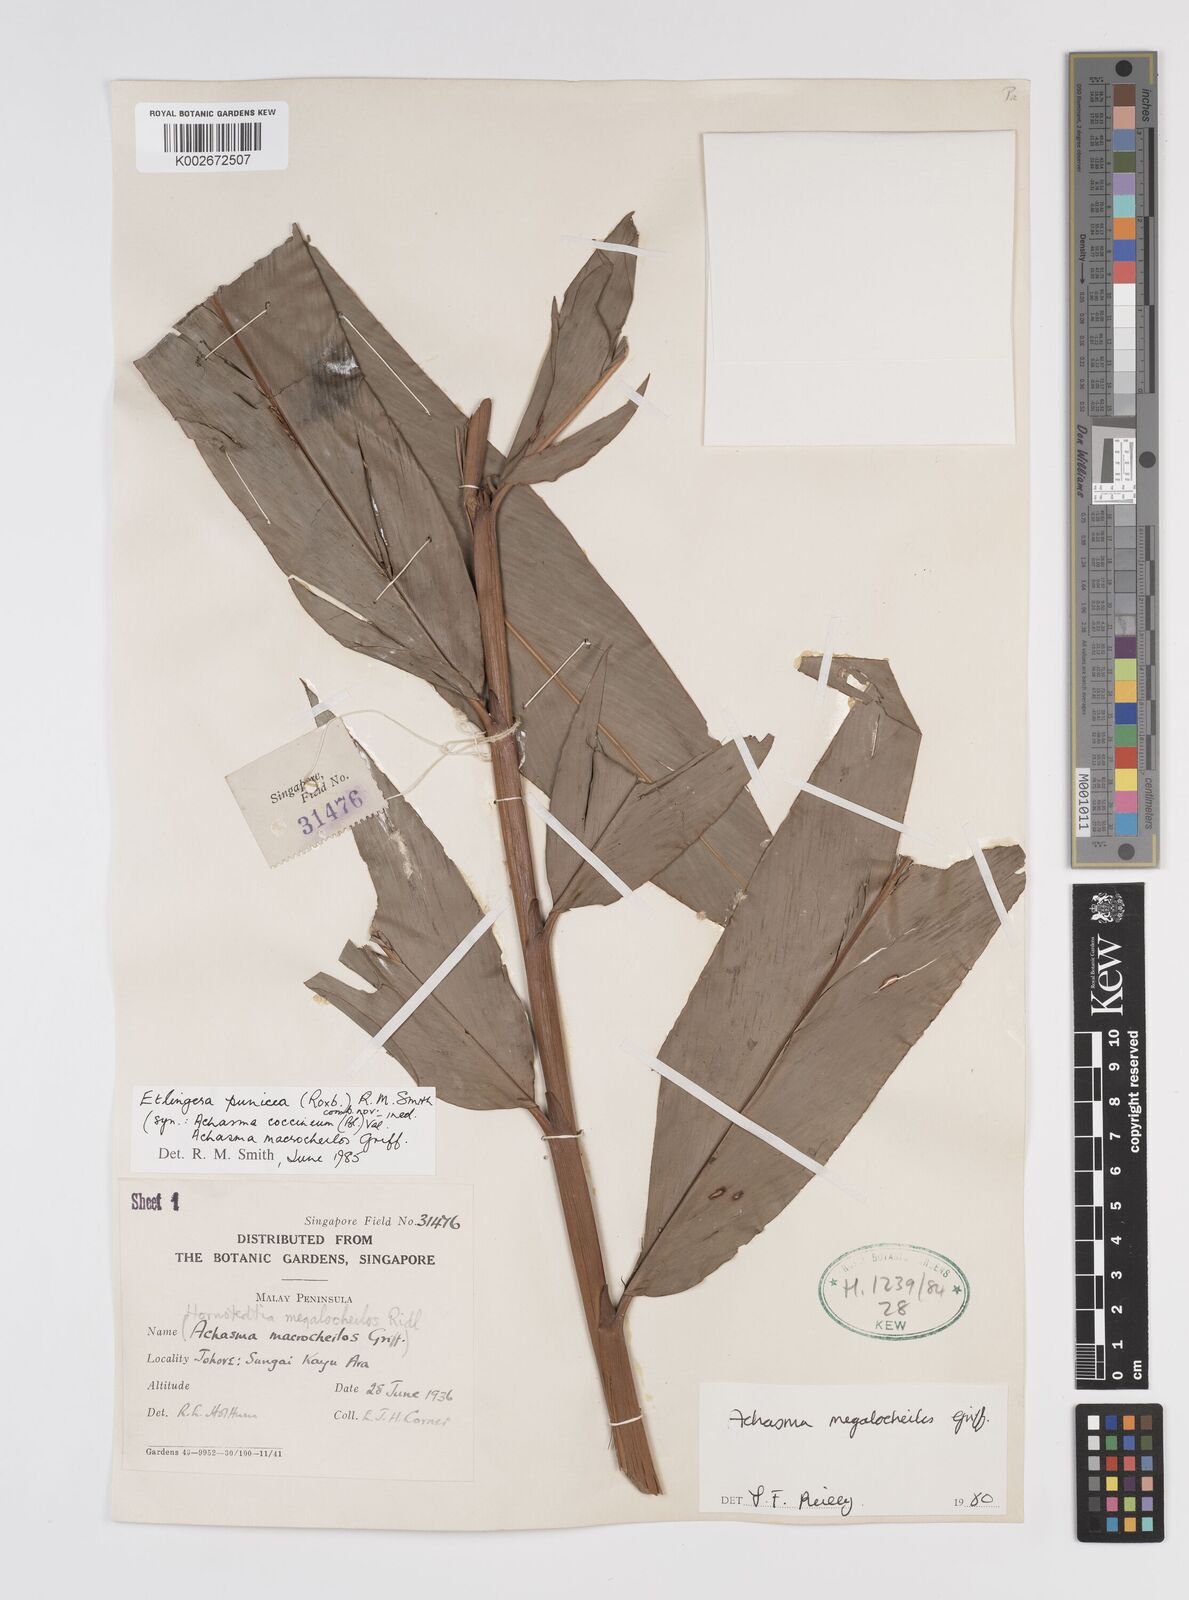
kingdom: Plantae
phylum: Tracheophyta
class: Liliopsida
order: Zingiberales
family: Zingiberaceae
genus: Etlingera
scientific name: Etlingera punicea
